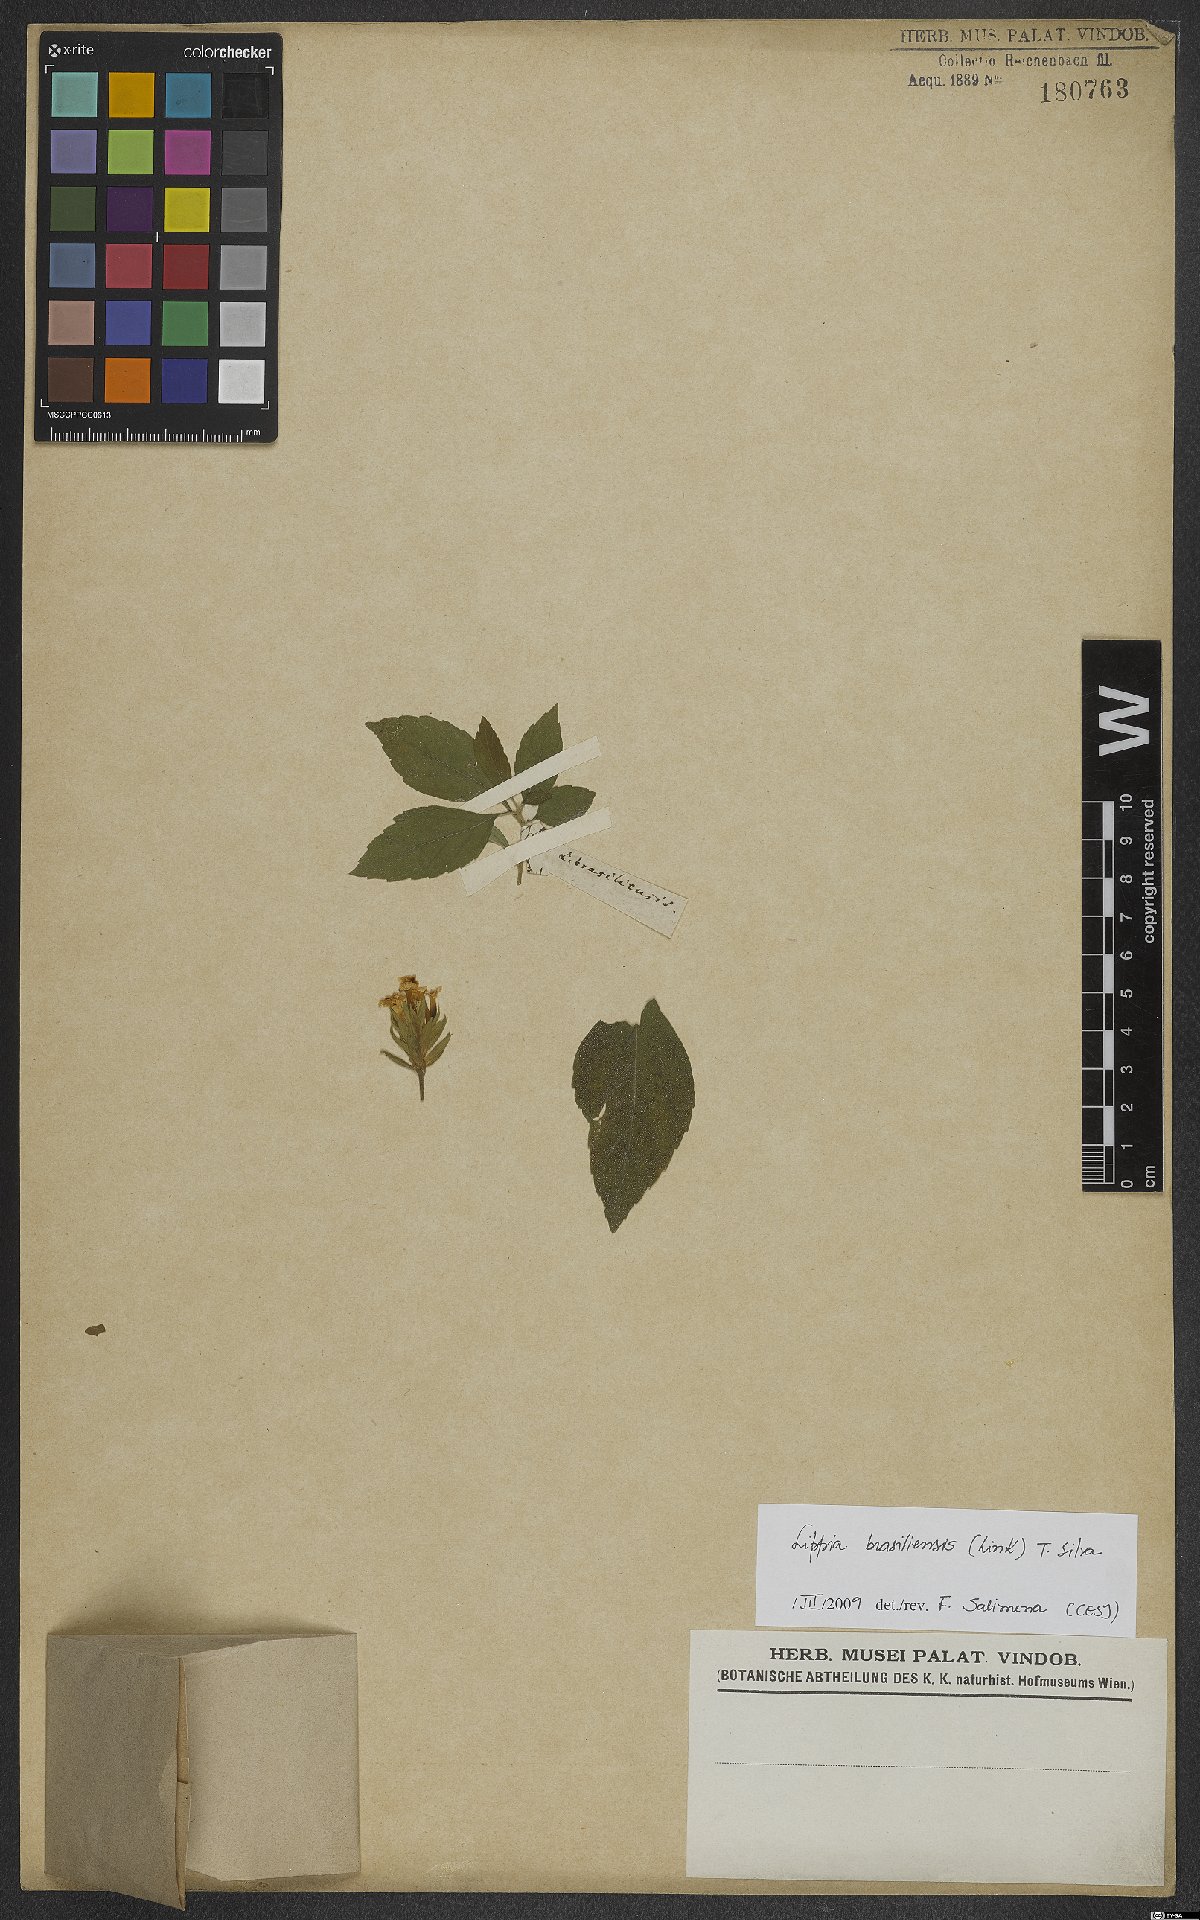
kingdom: Plantae
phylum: Tracheophyta
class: Magnoliopsida
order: Lamiales
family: Verbenaceae
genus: Lippia
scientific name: Lippia brasiliensis
